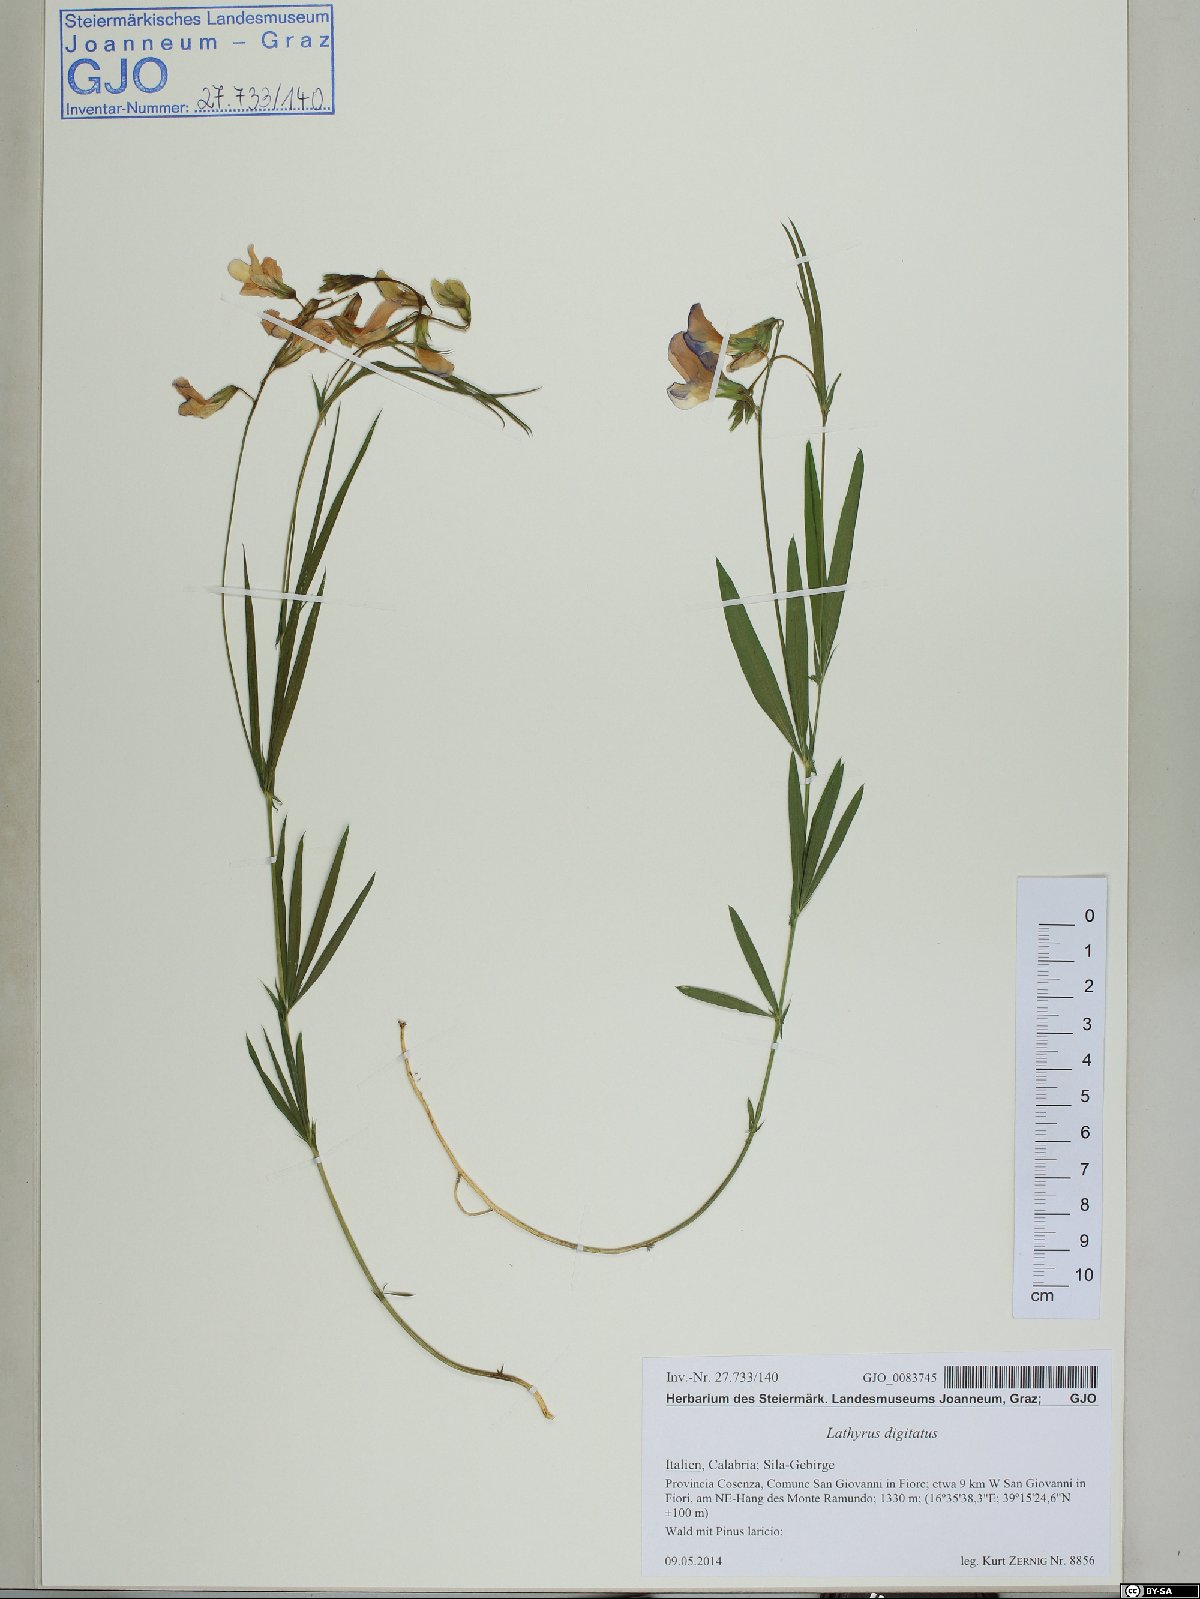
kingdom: Plantae
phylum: Tracheophyta
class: Magnoliopsida
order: Fabales
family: Fabaceae
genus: Lathyrus
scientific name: Lathyrus digitatus
